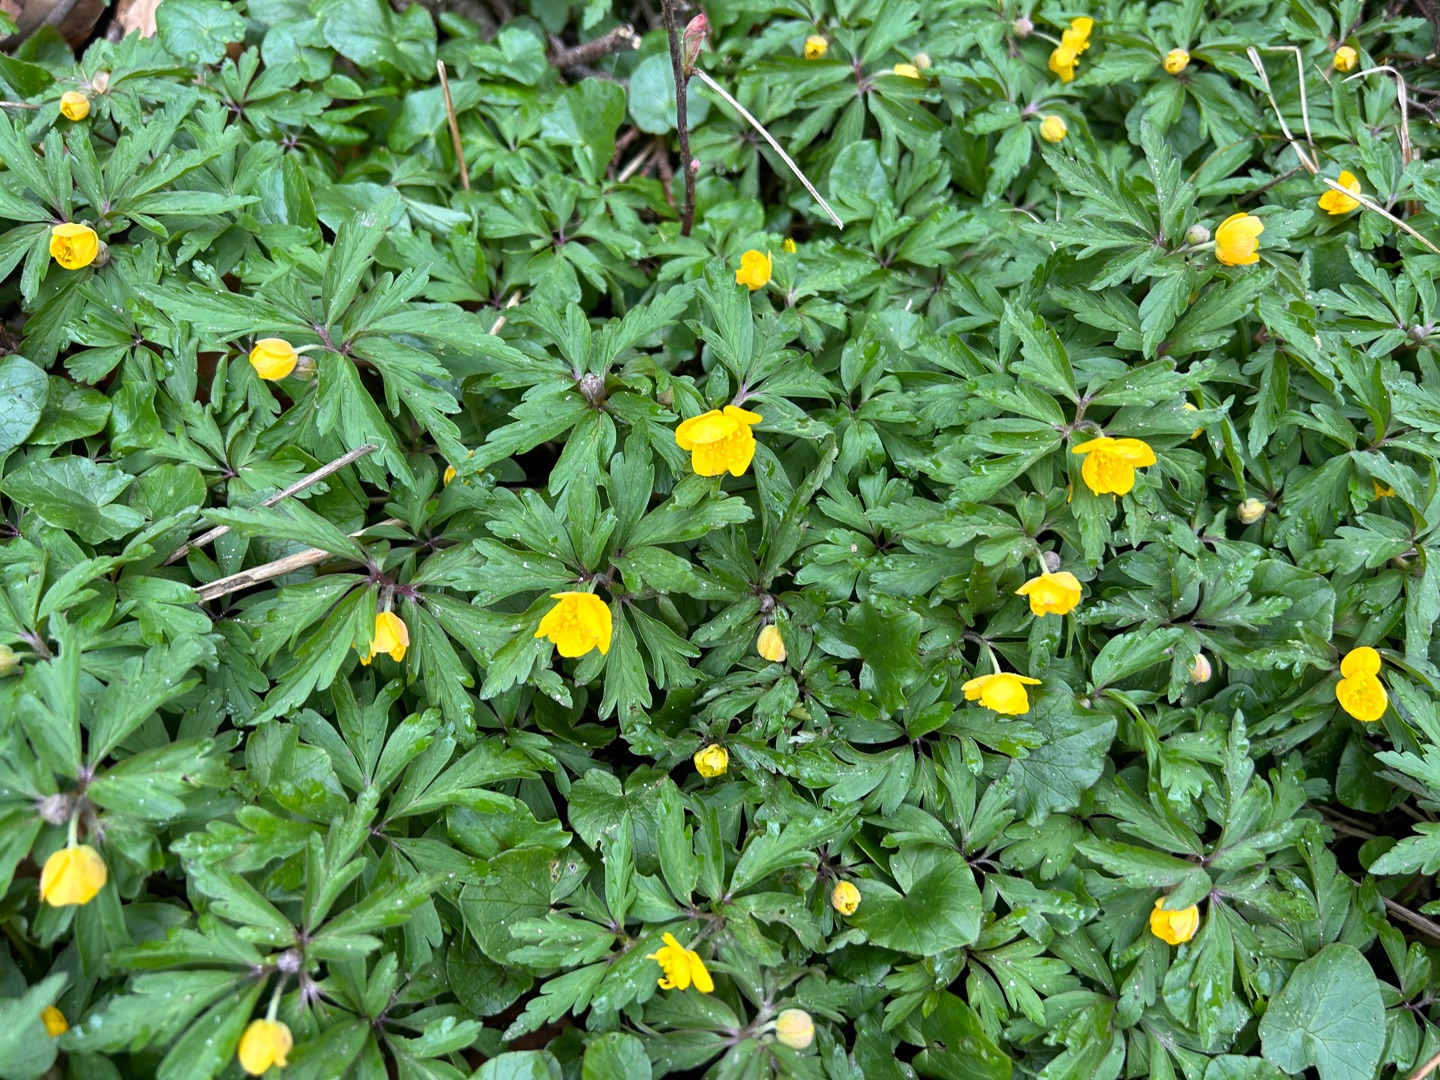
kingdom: Plantae
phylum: Tracheophyta
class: Magnoliopsida
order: Ranunculales
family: Ranunculaceae
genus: Anemone
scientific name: Anemone ranunculoides
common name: Gul anemone
